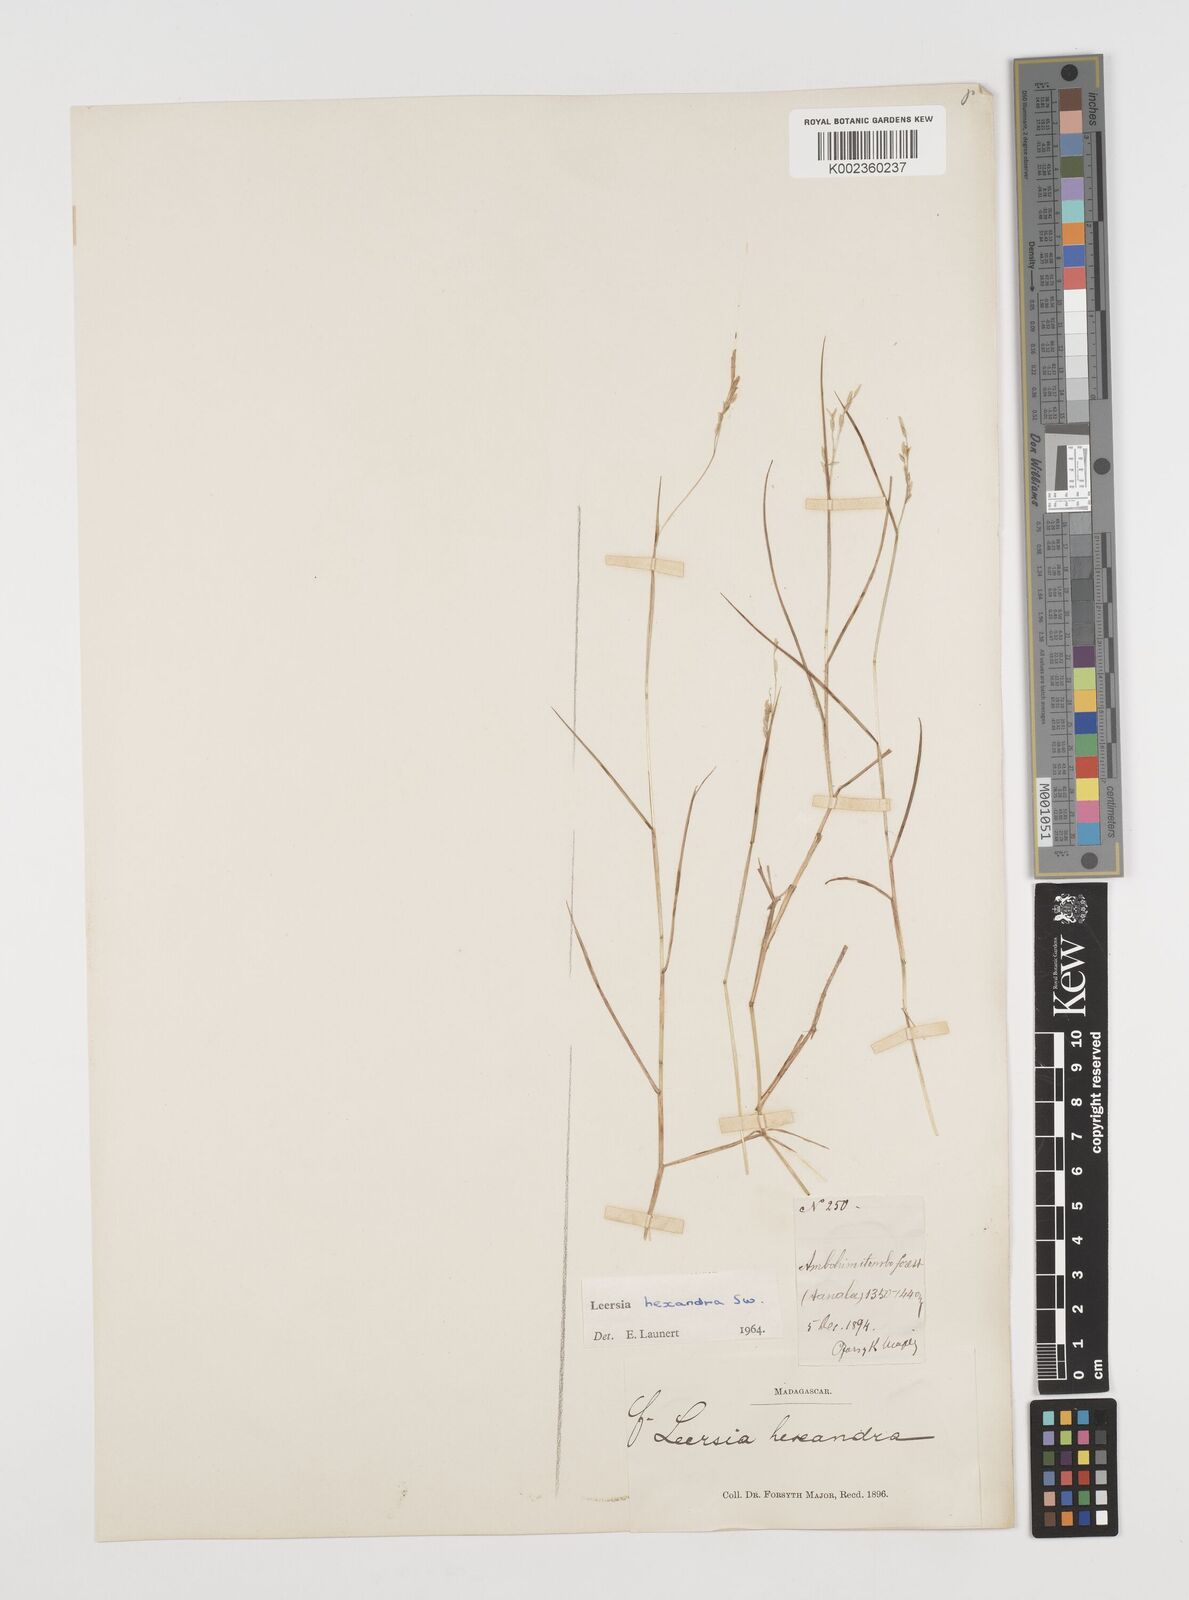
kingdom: Plantae
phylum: Tracheophyta
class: Liliopsida
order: Poales
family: Poaceae
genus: Leersia
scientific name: Leersia hexandra
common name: Southern cut grass
